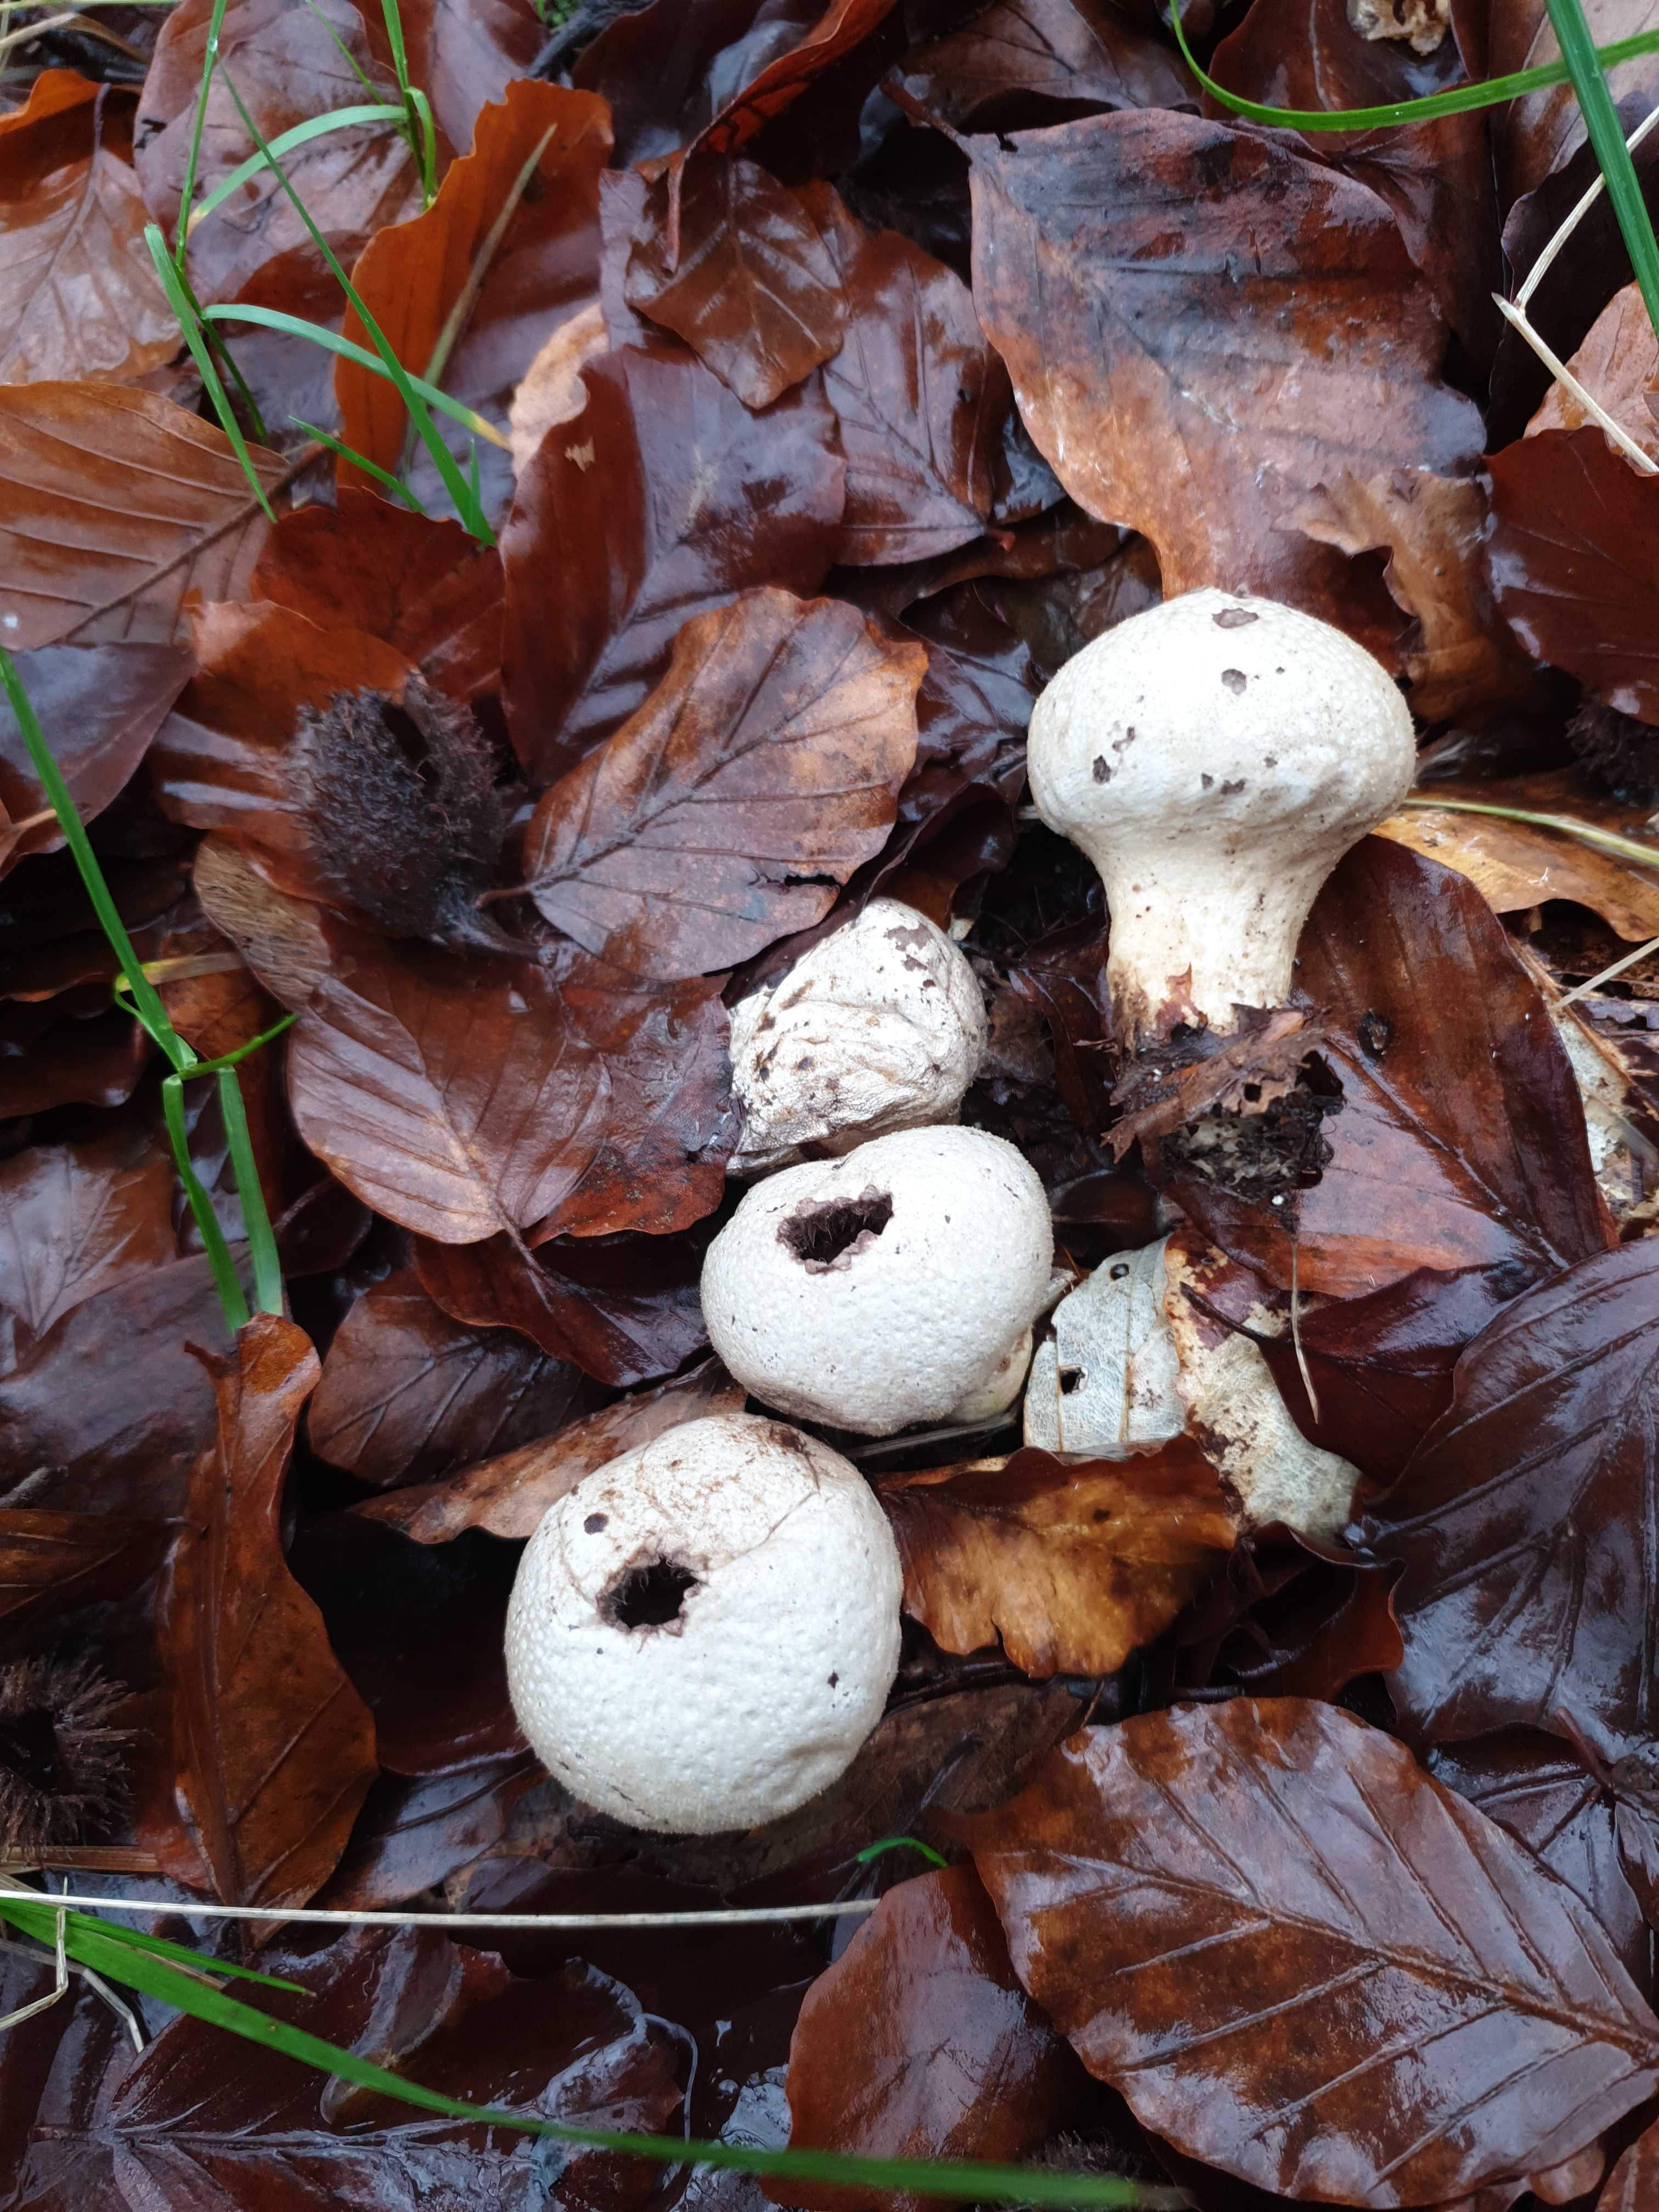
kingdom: Fungi
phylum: Basidiomycota
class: Agaricomycetes
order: Agaricales
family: Lycoperdaceae
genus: Lycoperdon
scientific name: Lycoperdon perlatum
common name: krystal-støvbold
